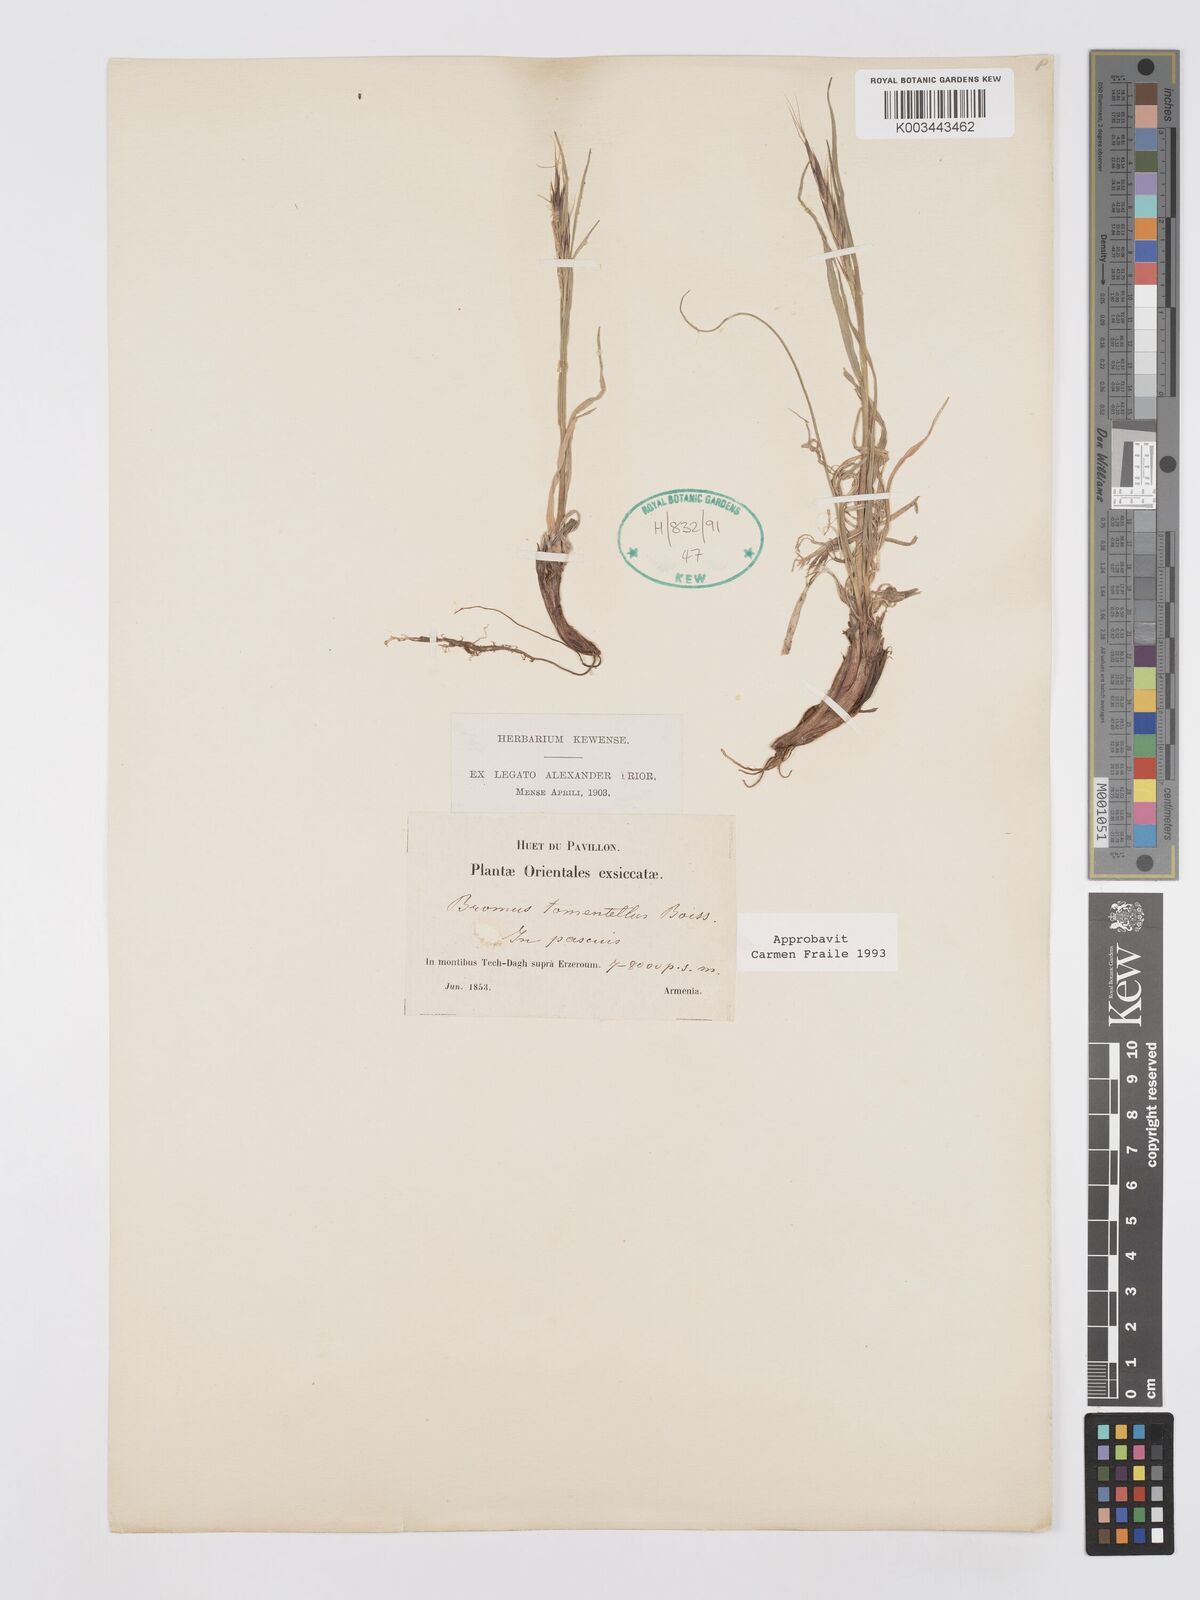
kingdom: Plantae
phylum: Tracheophyta
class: Liliopsida
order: Poales
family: Poaceae
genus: Bromus
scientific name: Bromus tomentellus
